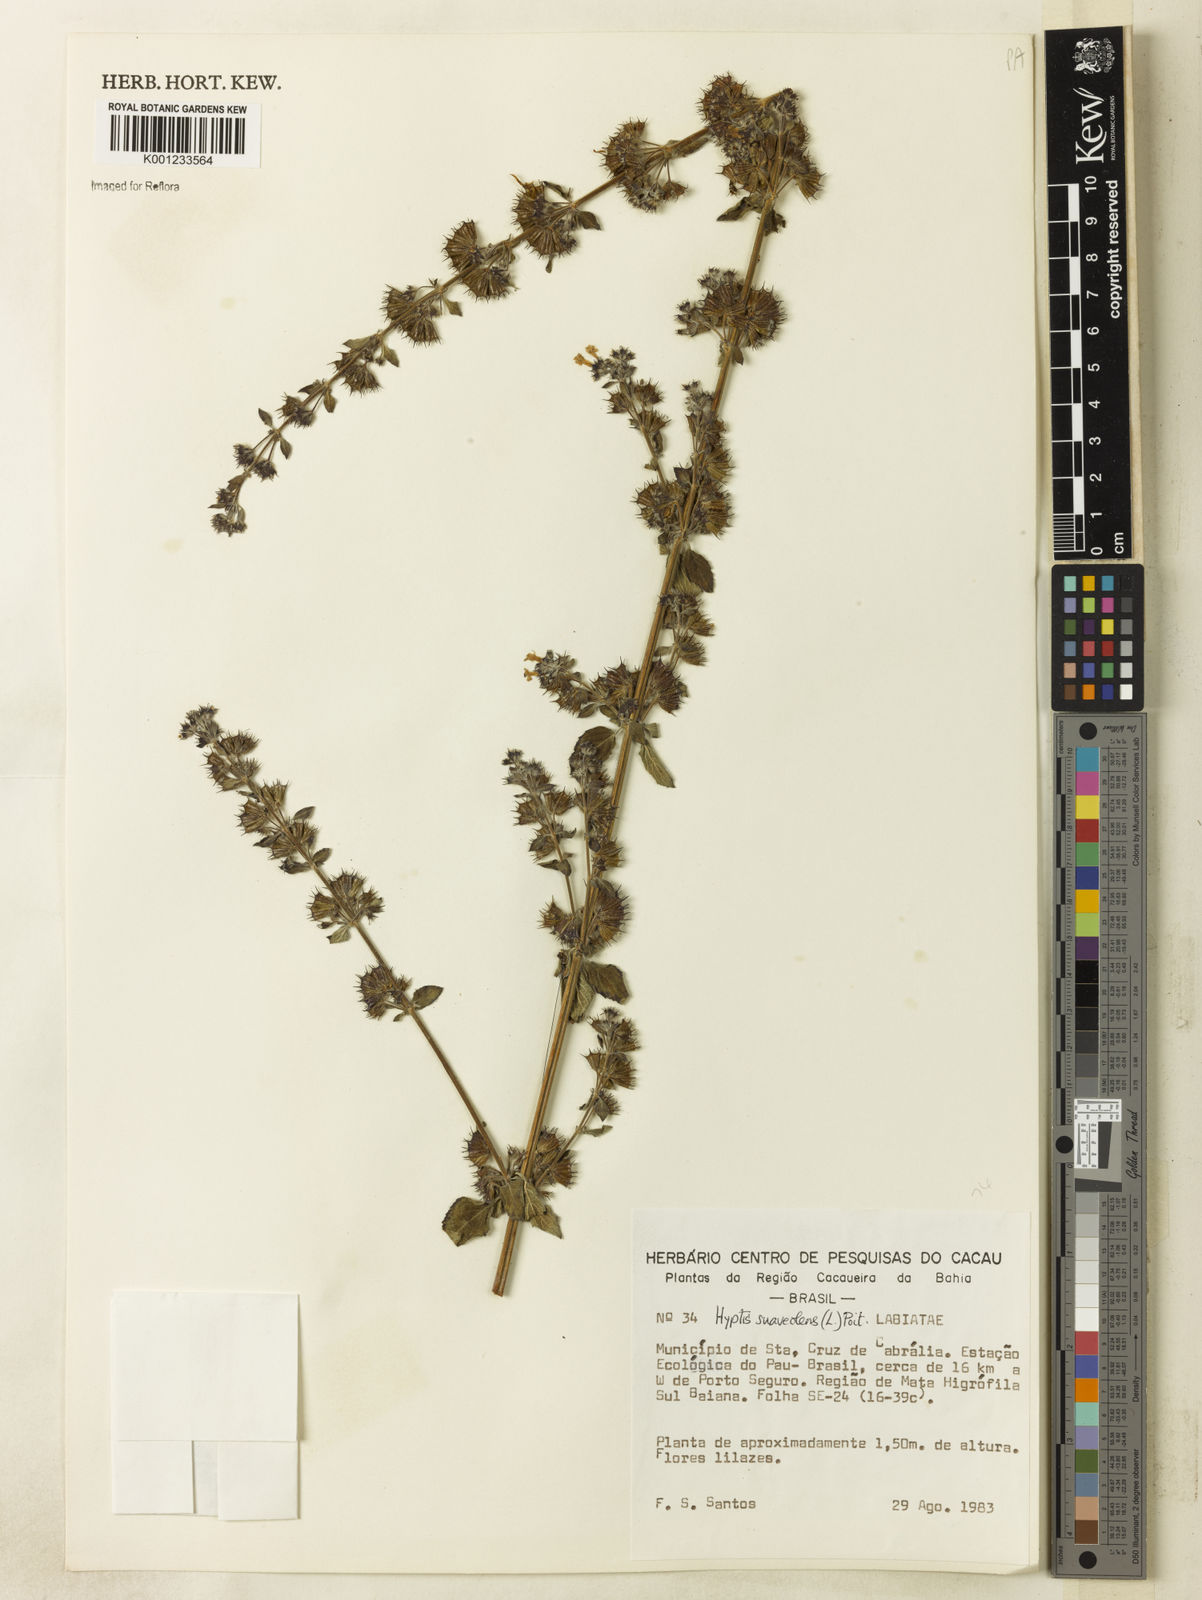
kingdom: Plantae
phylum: Tracheophyta
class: Magnoliopsida
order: Lamiales
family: Lamiaceae
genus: Mesosphaerum
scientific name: Mesosphaerum suaveolens
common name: Pignut
